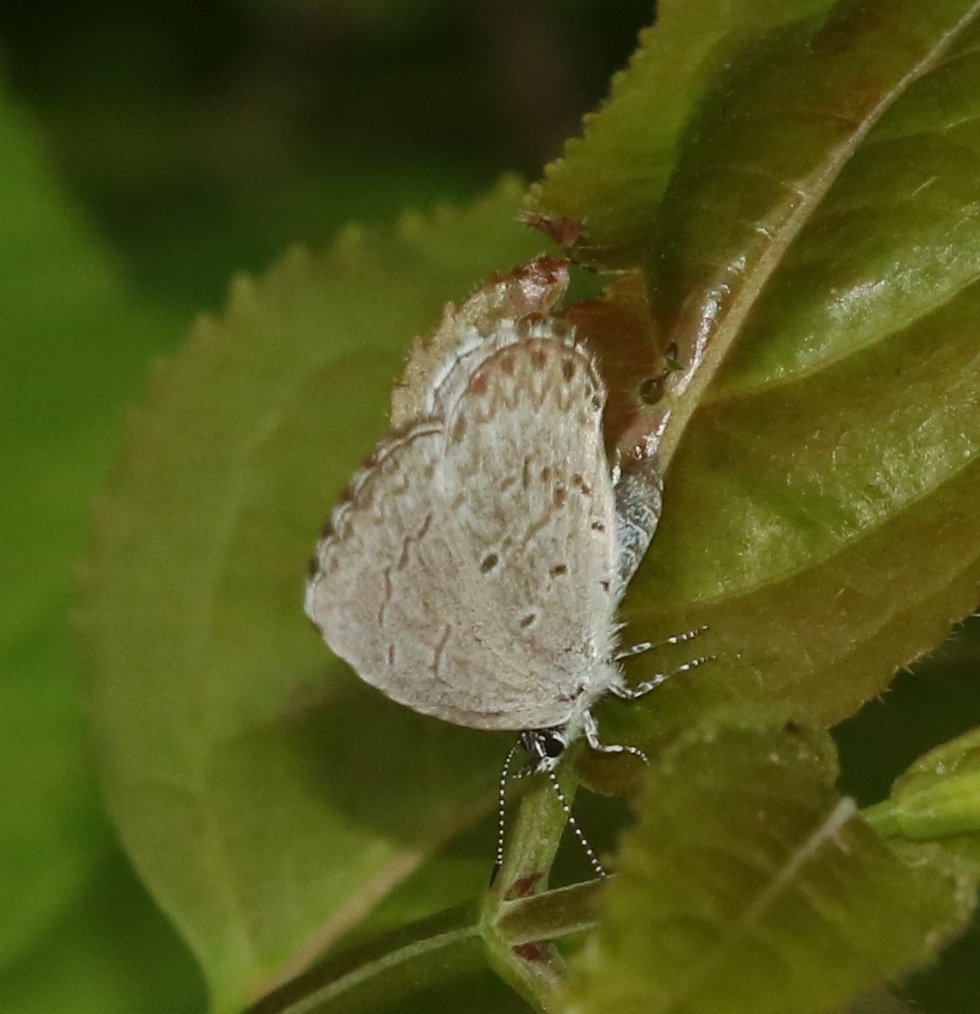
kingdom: Animalia
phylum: Arthropoda
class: Insecta
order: Lepidoptera
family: Lycaenidae
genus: Celastrina
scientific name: Celastrina ladon
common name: Spring Azure
